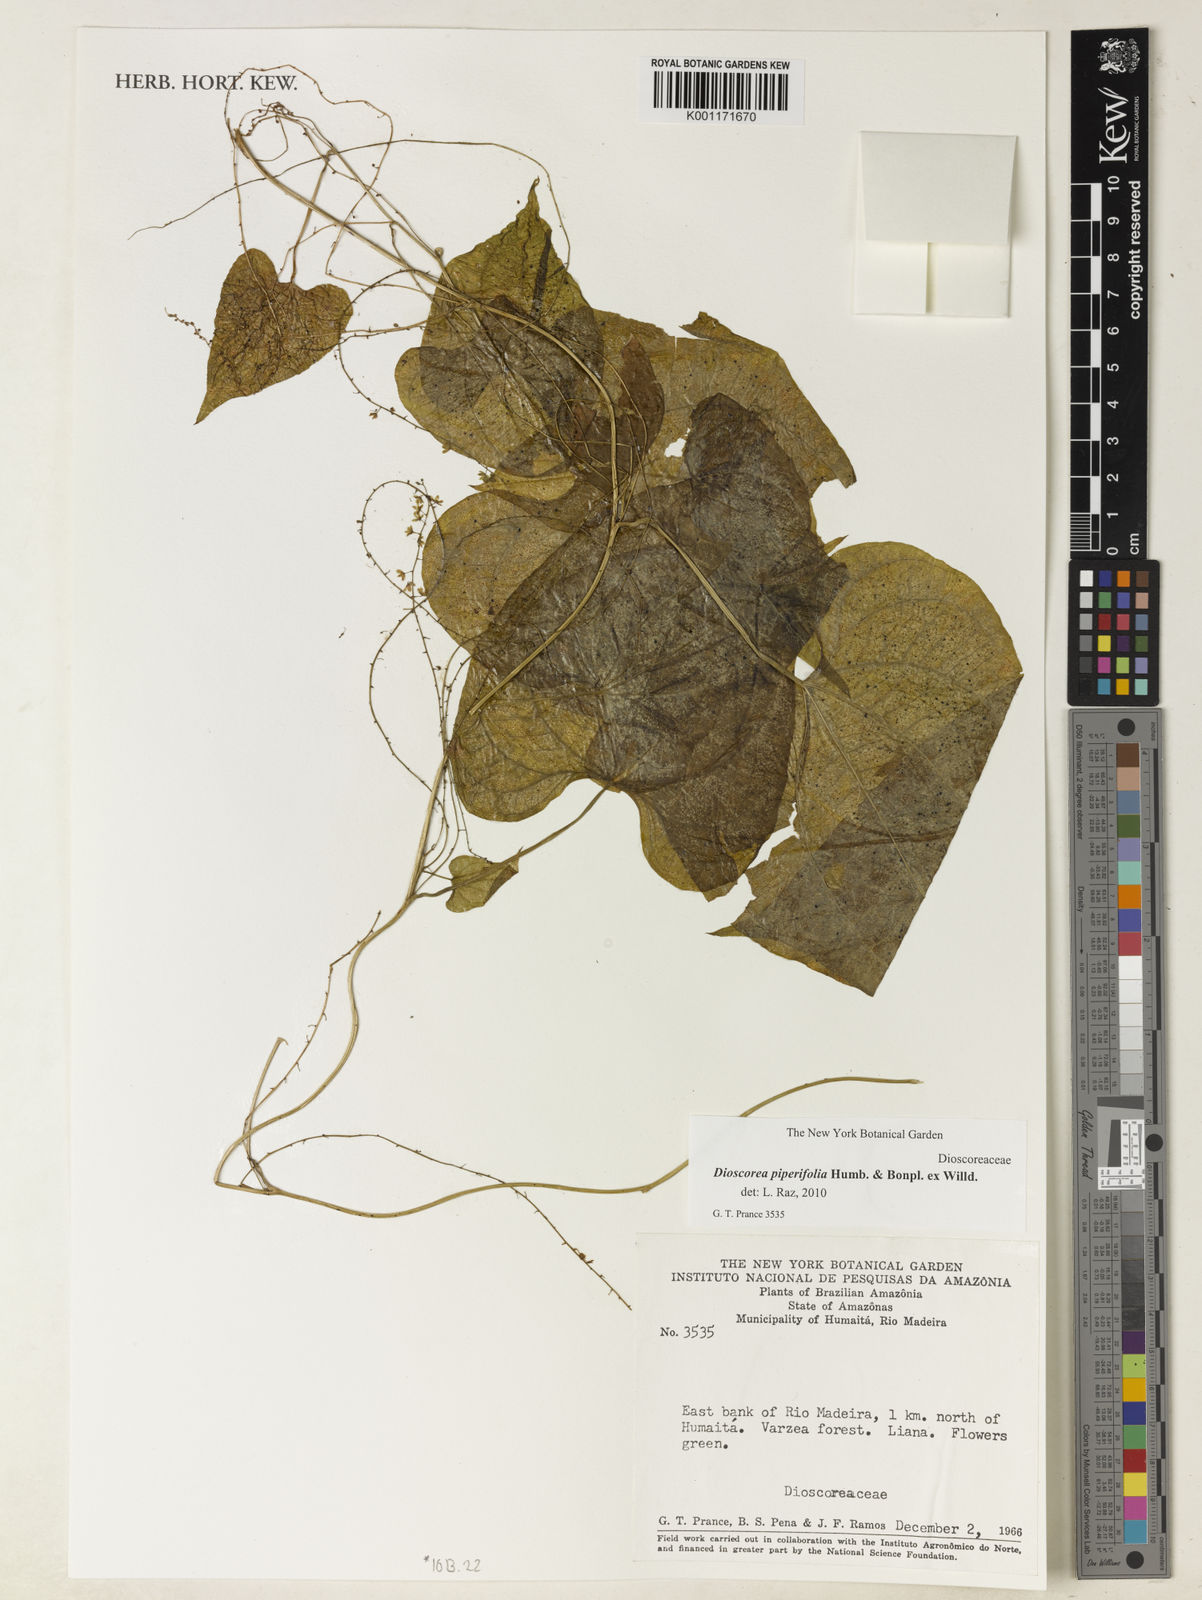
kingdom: Plantae
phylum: Tracheophyta
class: Liliopsida
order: Dioscoreales
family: Dioscoreaceae
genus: Dioscorea
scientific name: Dioscorea piperifolia
